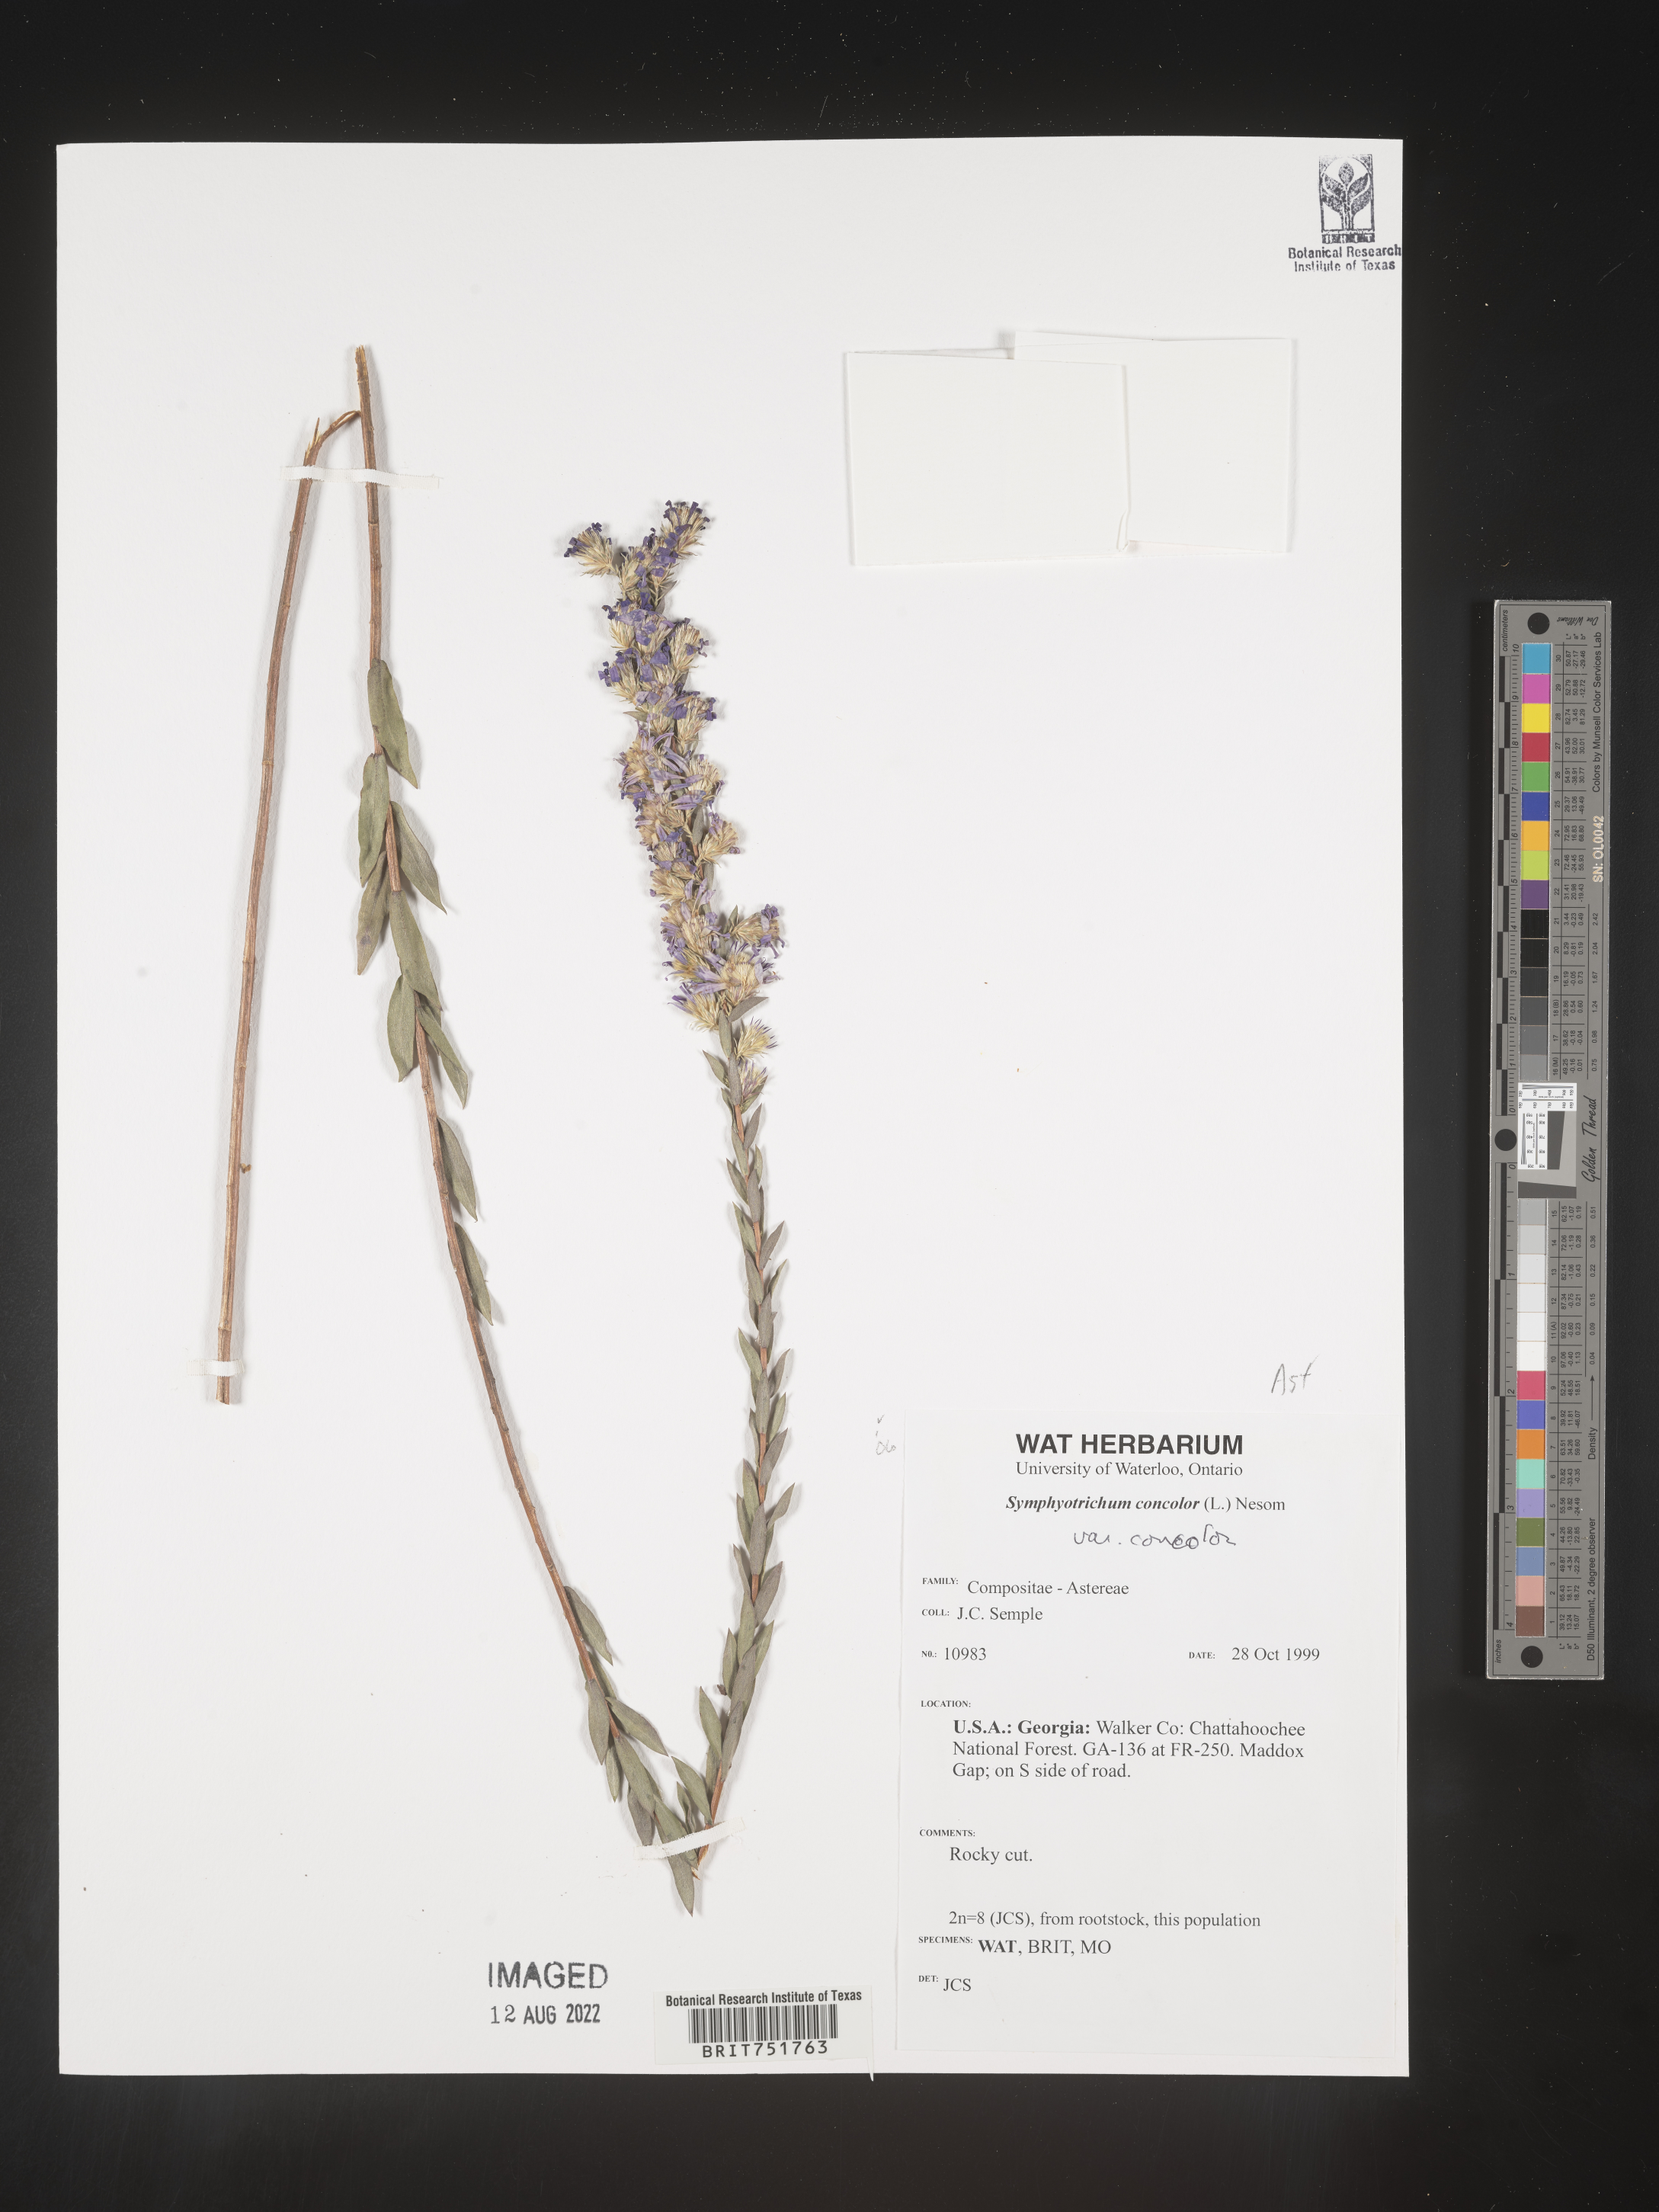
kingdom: Plantae
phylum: Tracheophyta
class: Magnoliopsida
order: Asterales
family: Asteraceae
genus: Symphyotrichum
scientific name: Symphyotrichum concolor
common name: Eastern silver aster
